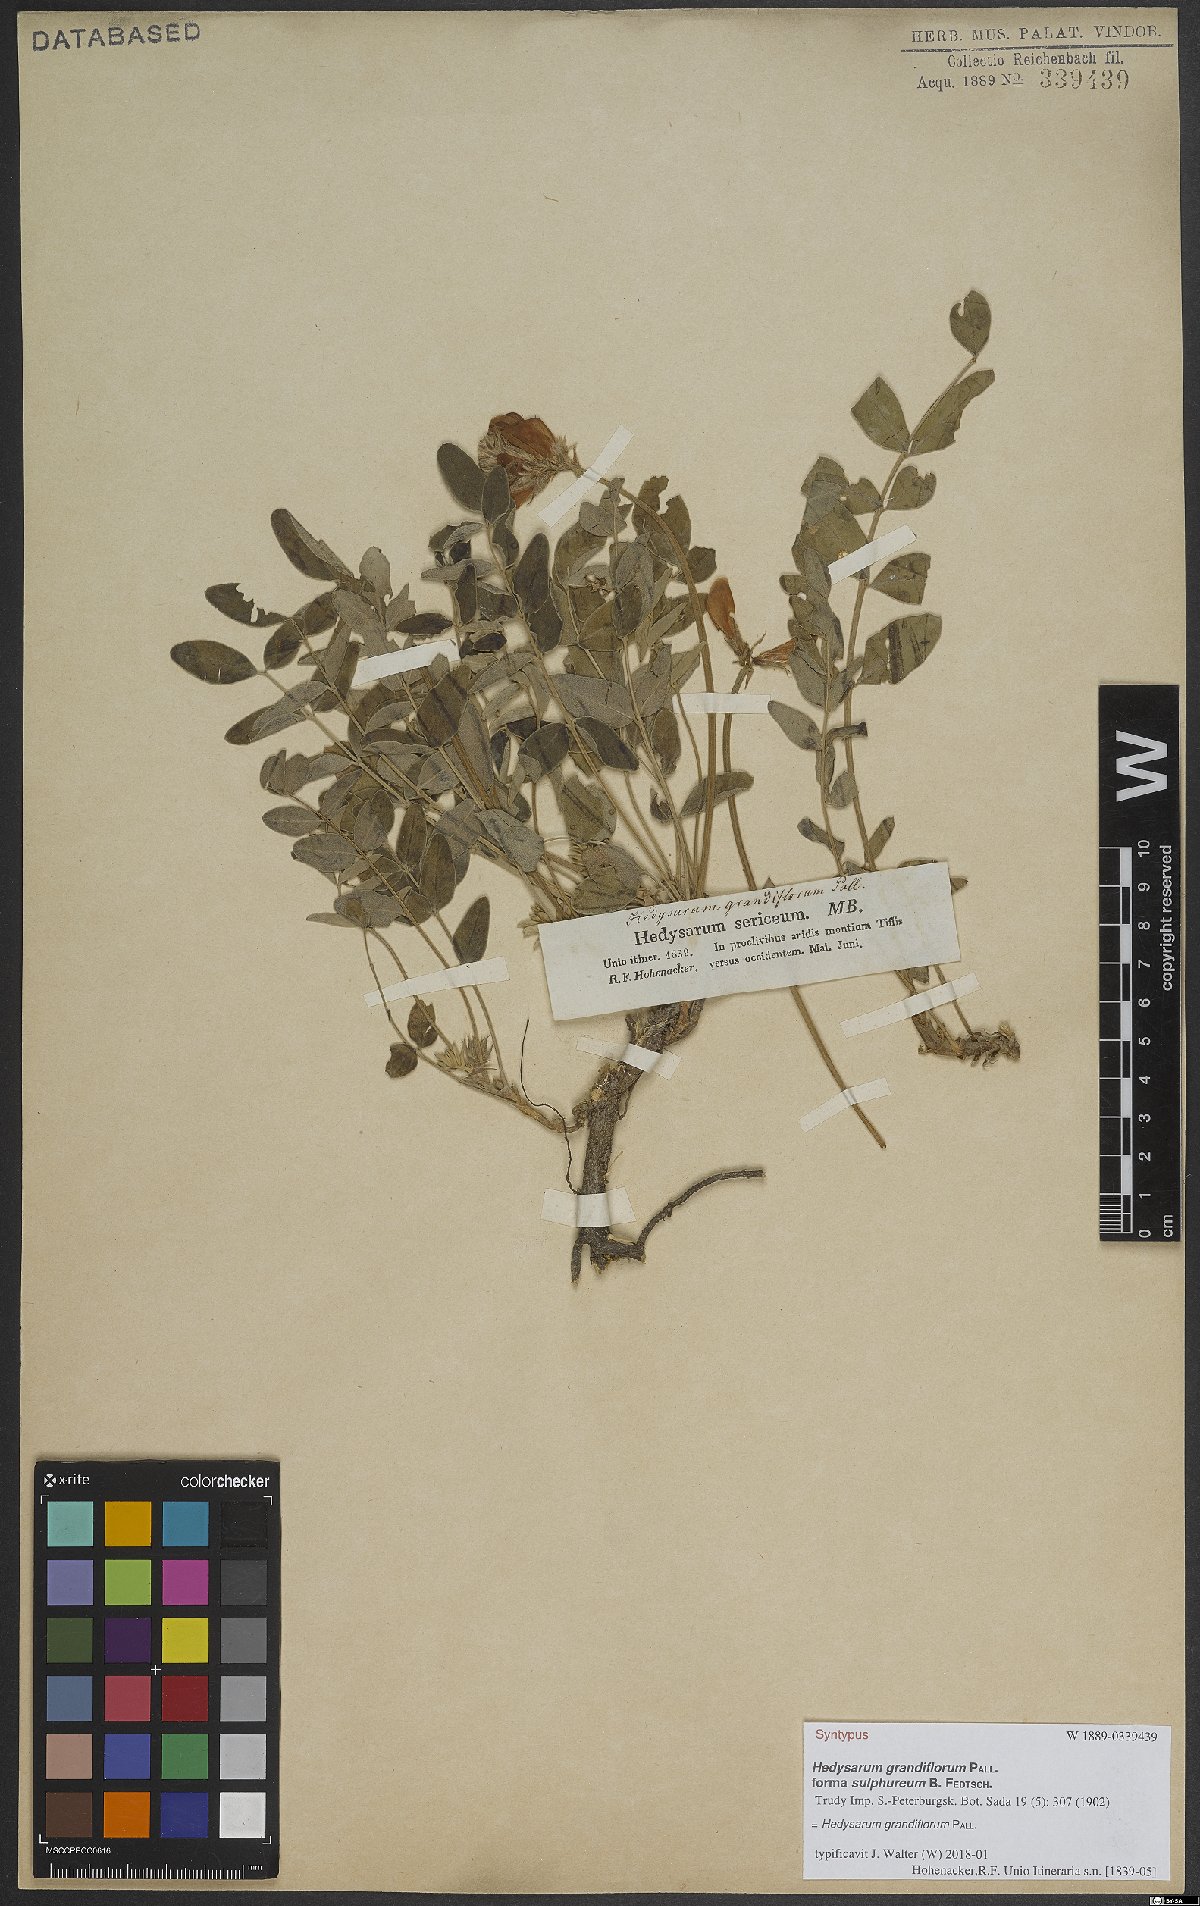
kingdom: Plantae
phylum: Tracheophyta
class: Magnoliopsida
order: Fabales
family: Fabaceae
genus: Hedysarum
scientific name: Hedysarum grandiflorum
